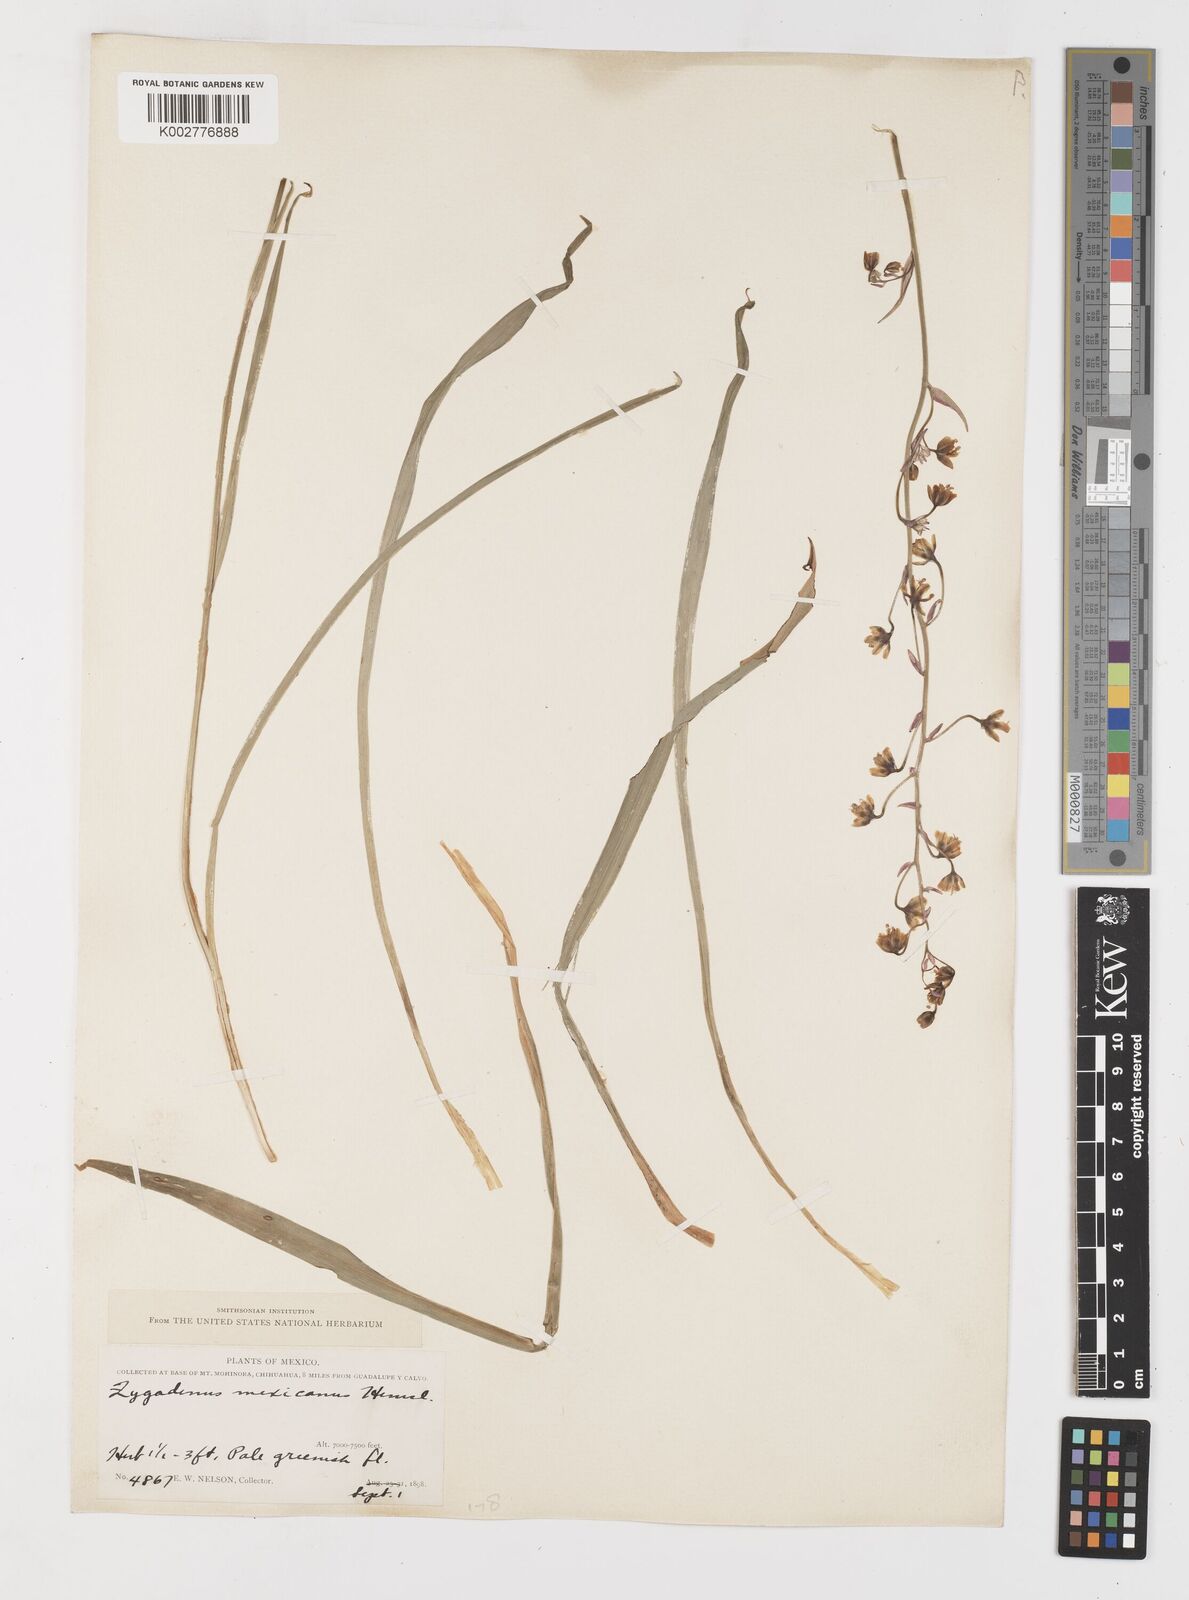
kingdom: Plantae
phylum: Tracheophyta
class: Liliopsida
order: Liliales
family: Melanthiaceae
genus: Anticlea
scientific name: Anticlea virescens
